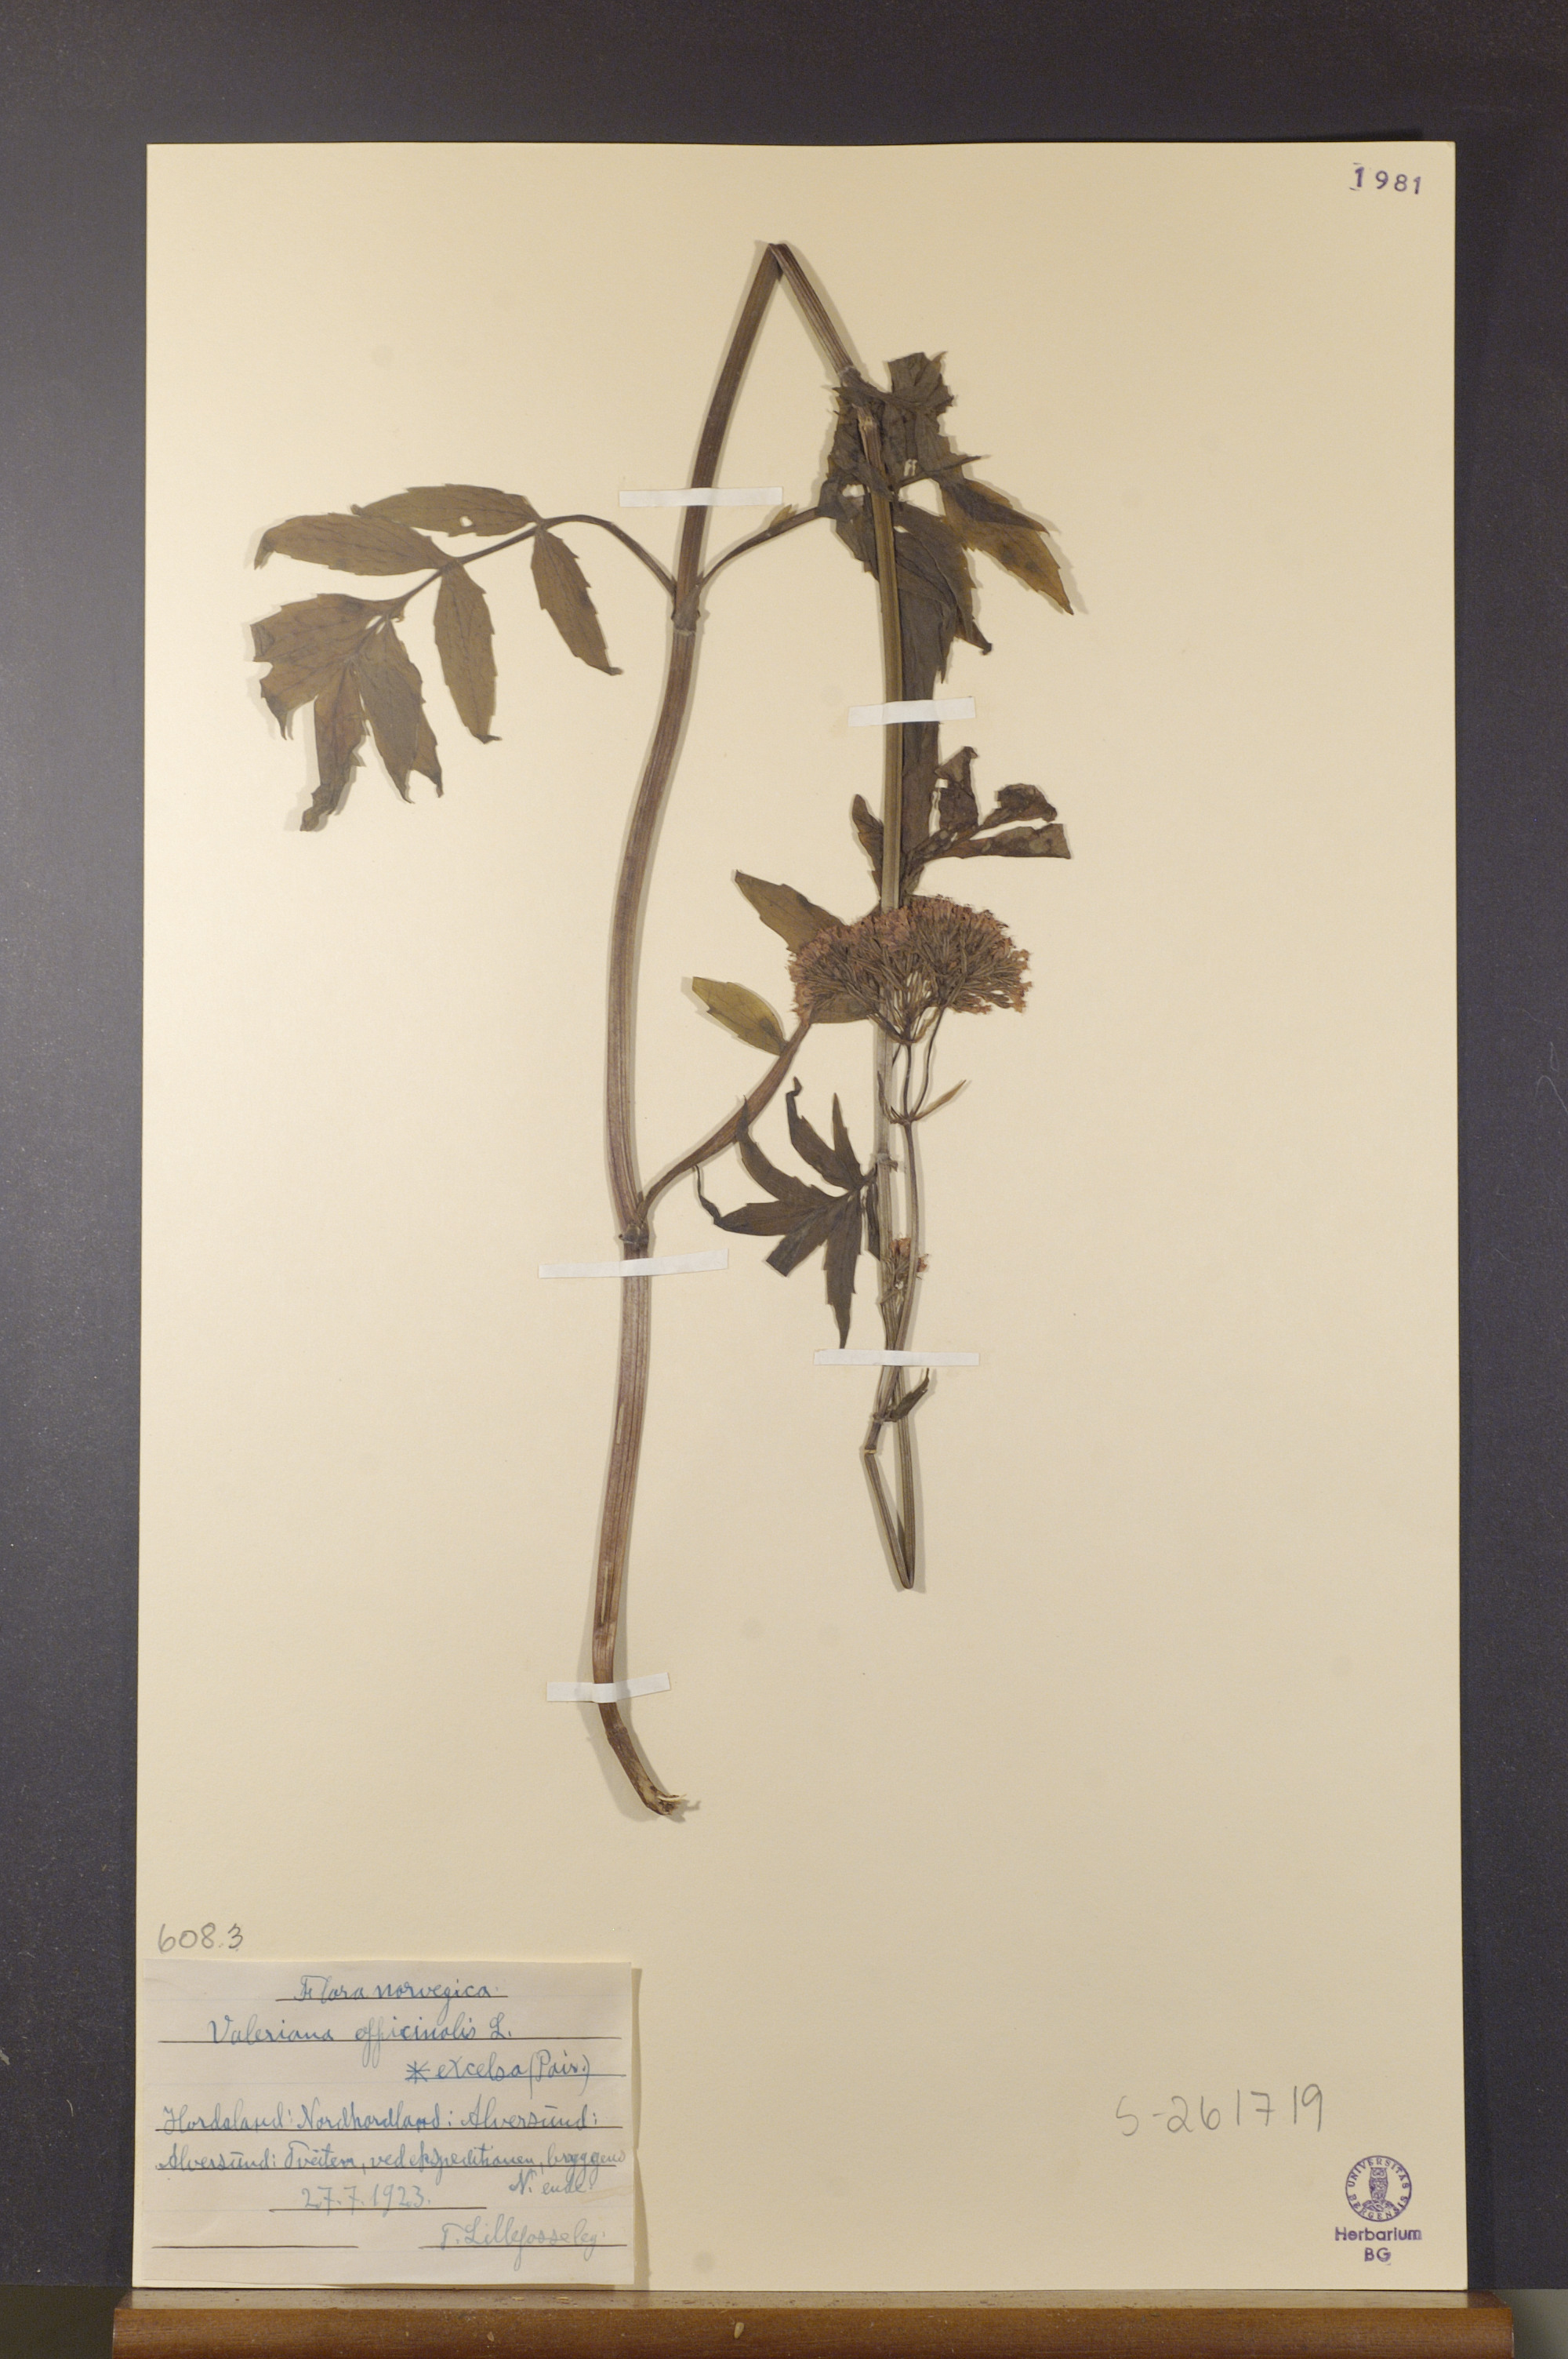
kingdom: Plantae
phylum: Tracheophyta
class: Magnoliopsida
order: Dipsacales
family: Caprifoliaceae
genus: Valeriana
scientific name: Valeriana sambucifolia
